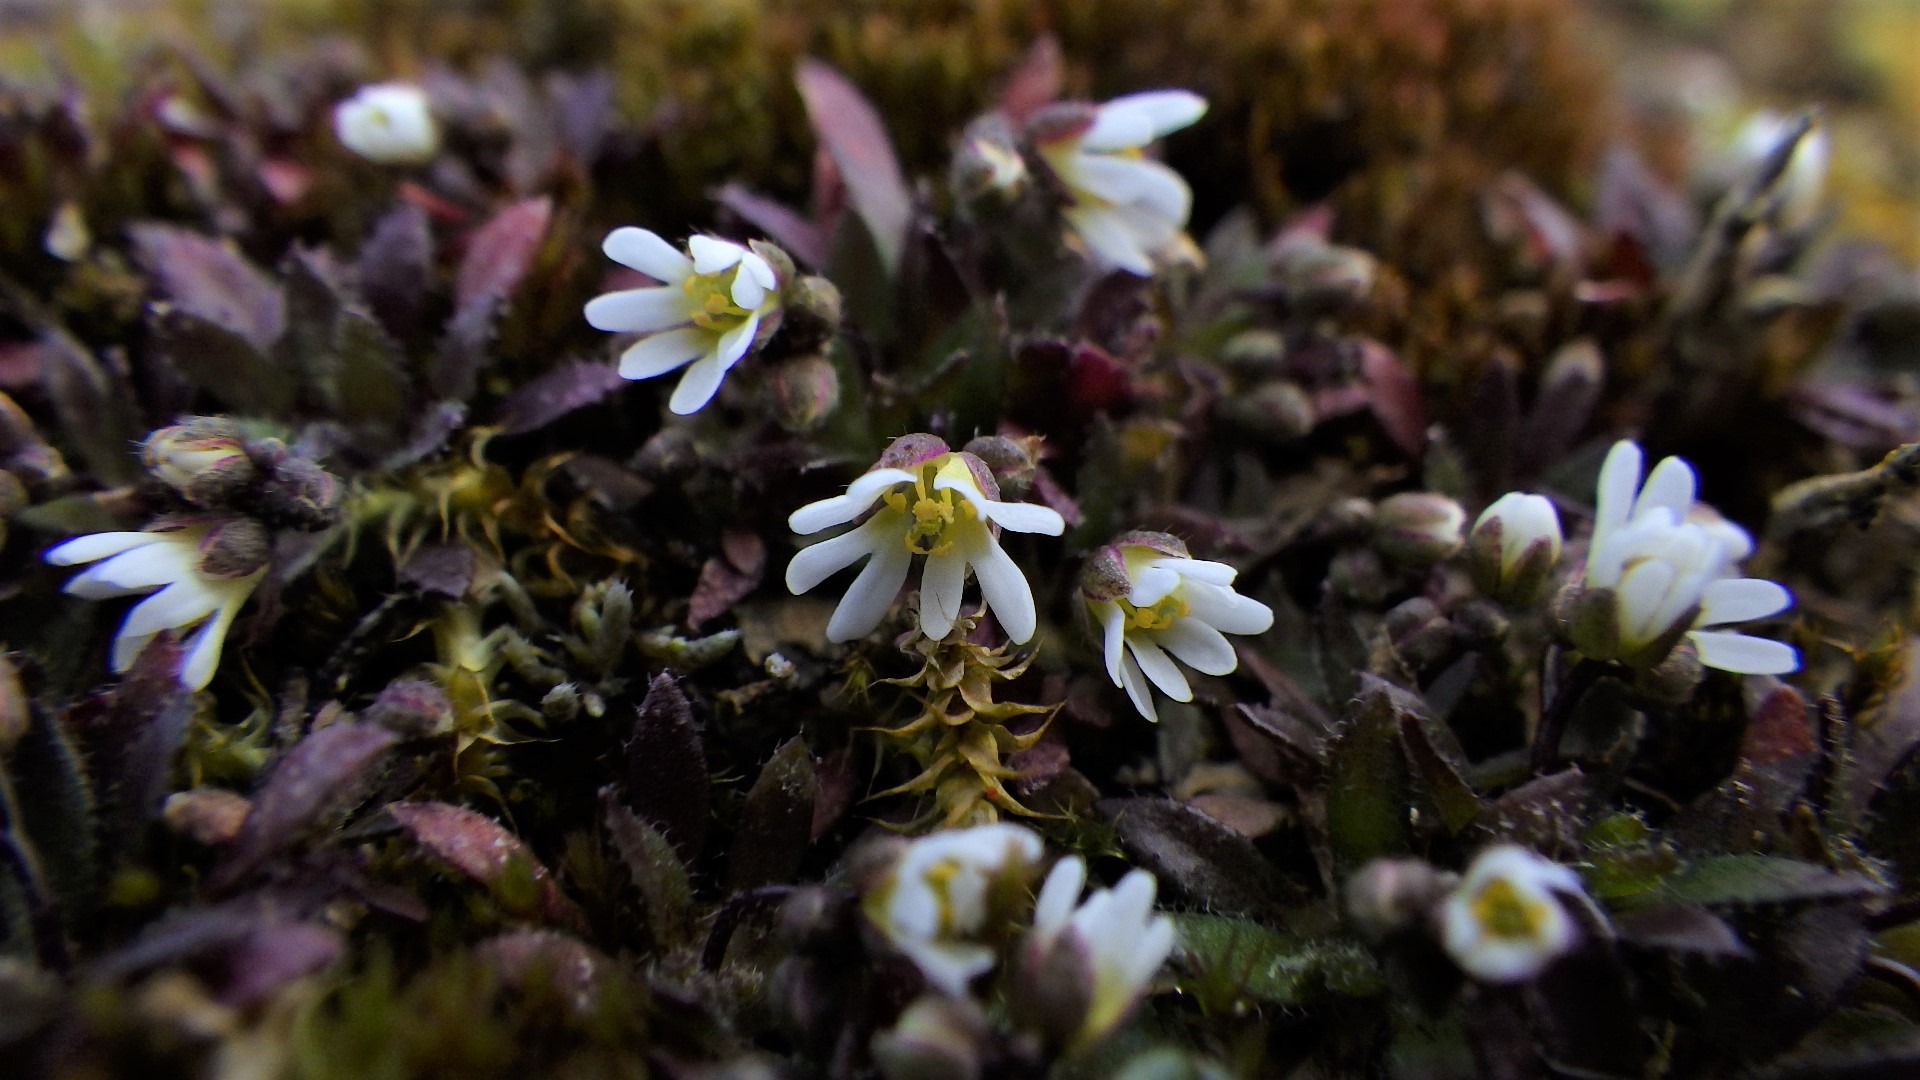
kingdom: Plantae
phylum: Tracheophyta
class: Magnoliopsida
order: Brassicales
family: Brassicaceae
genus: Draba
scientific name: Draba verna
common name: Vår-gæslingeblomst
